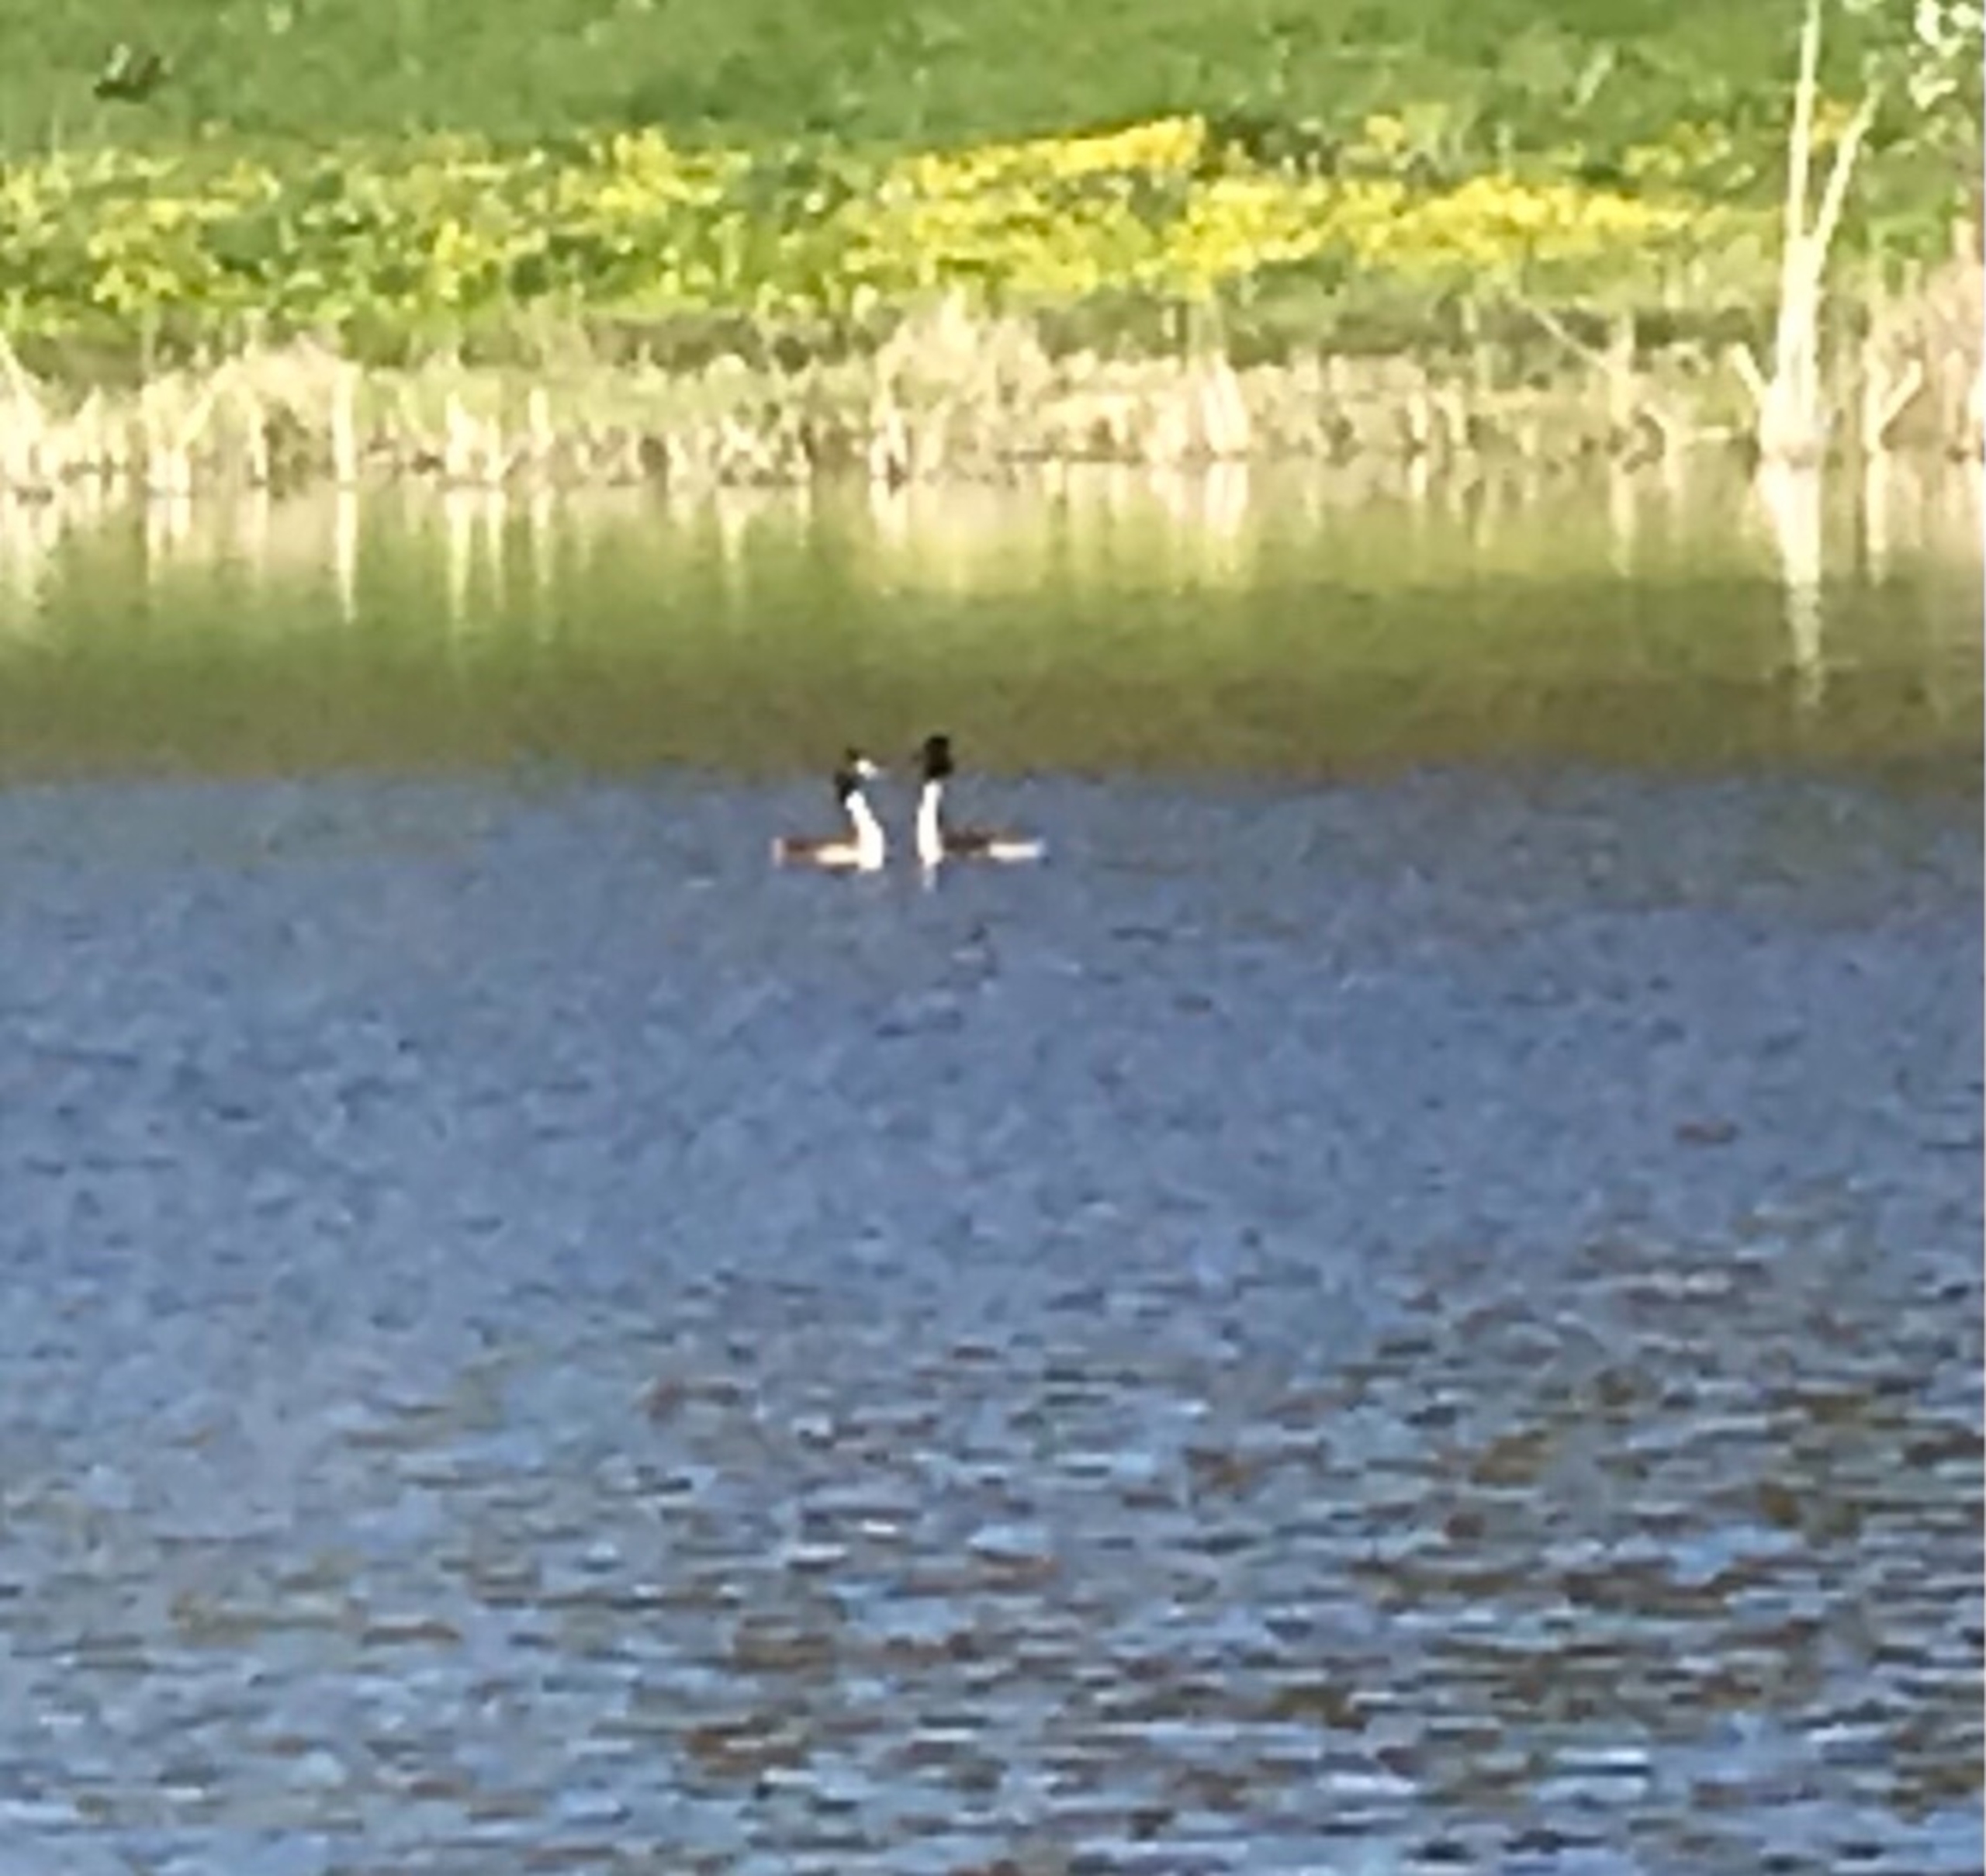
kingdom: Animalia
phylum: Chordata
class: Aves
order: Podicipediformes
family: Podicipedidae
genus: Podiceps
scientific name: Podiceps cristatus
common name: Toppet lappedykker
